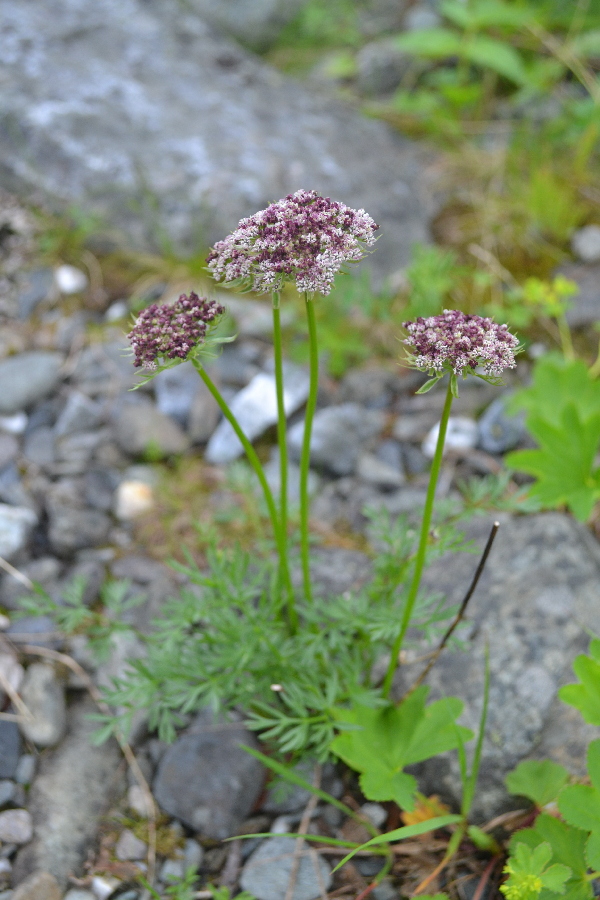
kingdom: Plantae
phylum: Tracheophyta
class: Magnoliopsida
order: Apiales
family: Apiaceae
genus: Pachypleurum
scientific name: Pachypleurum mutellinoides
